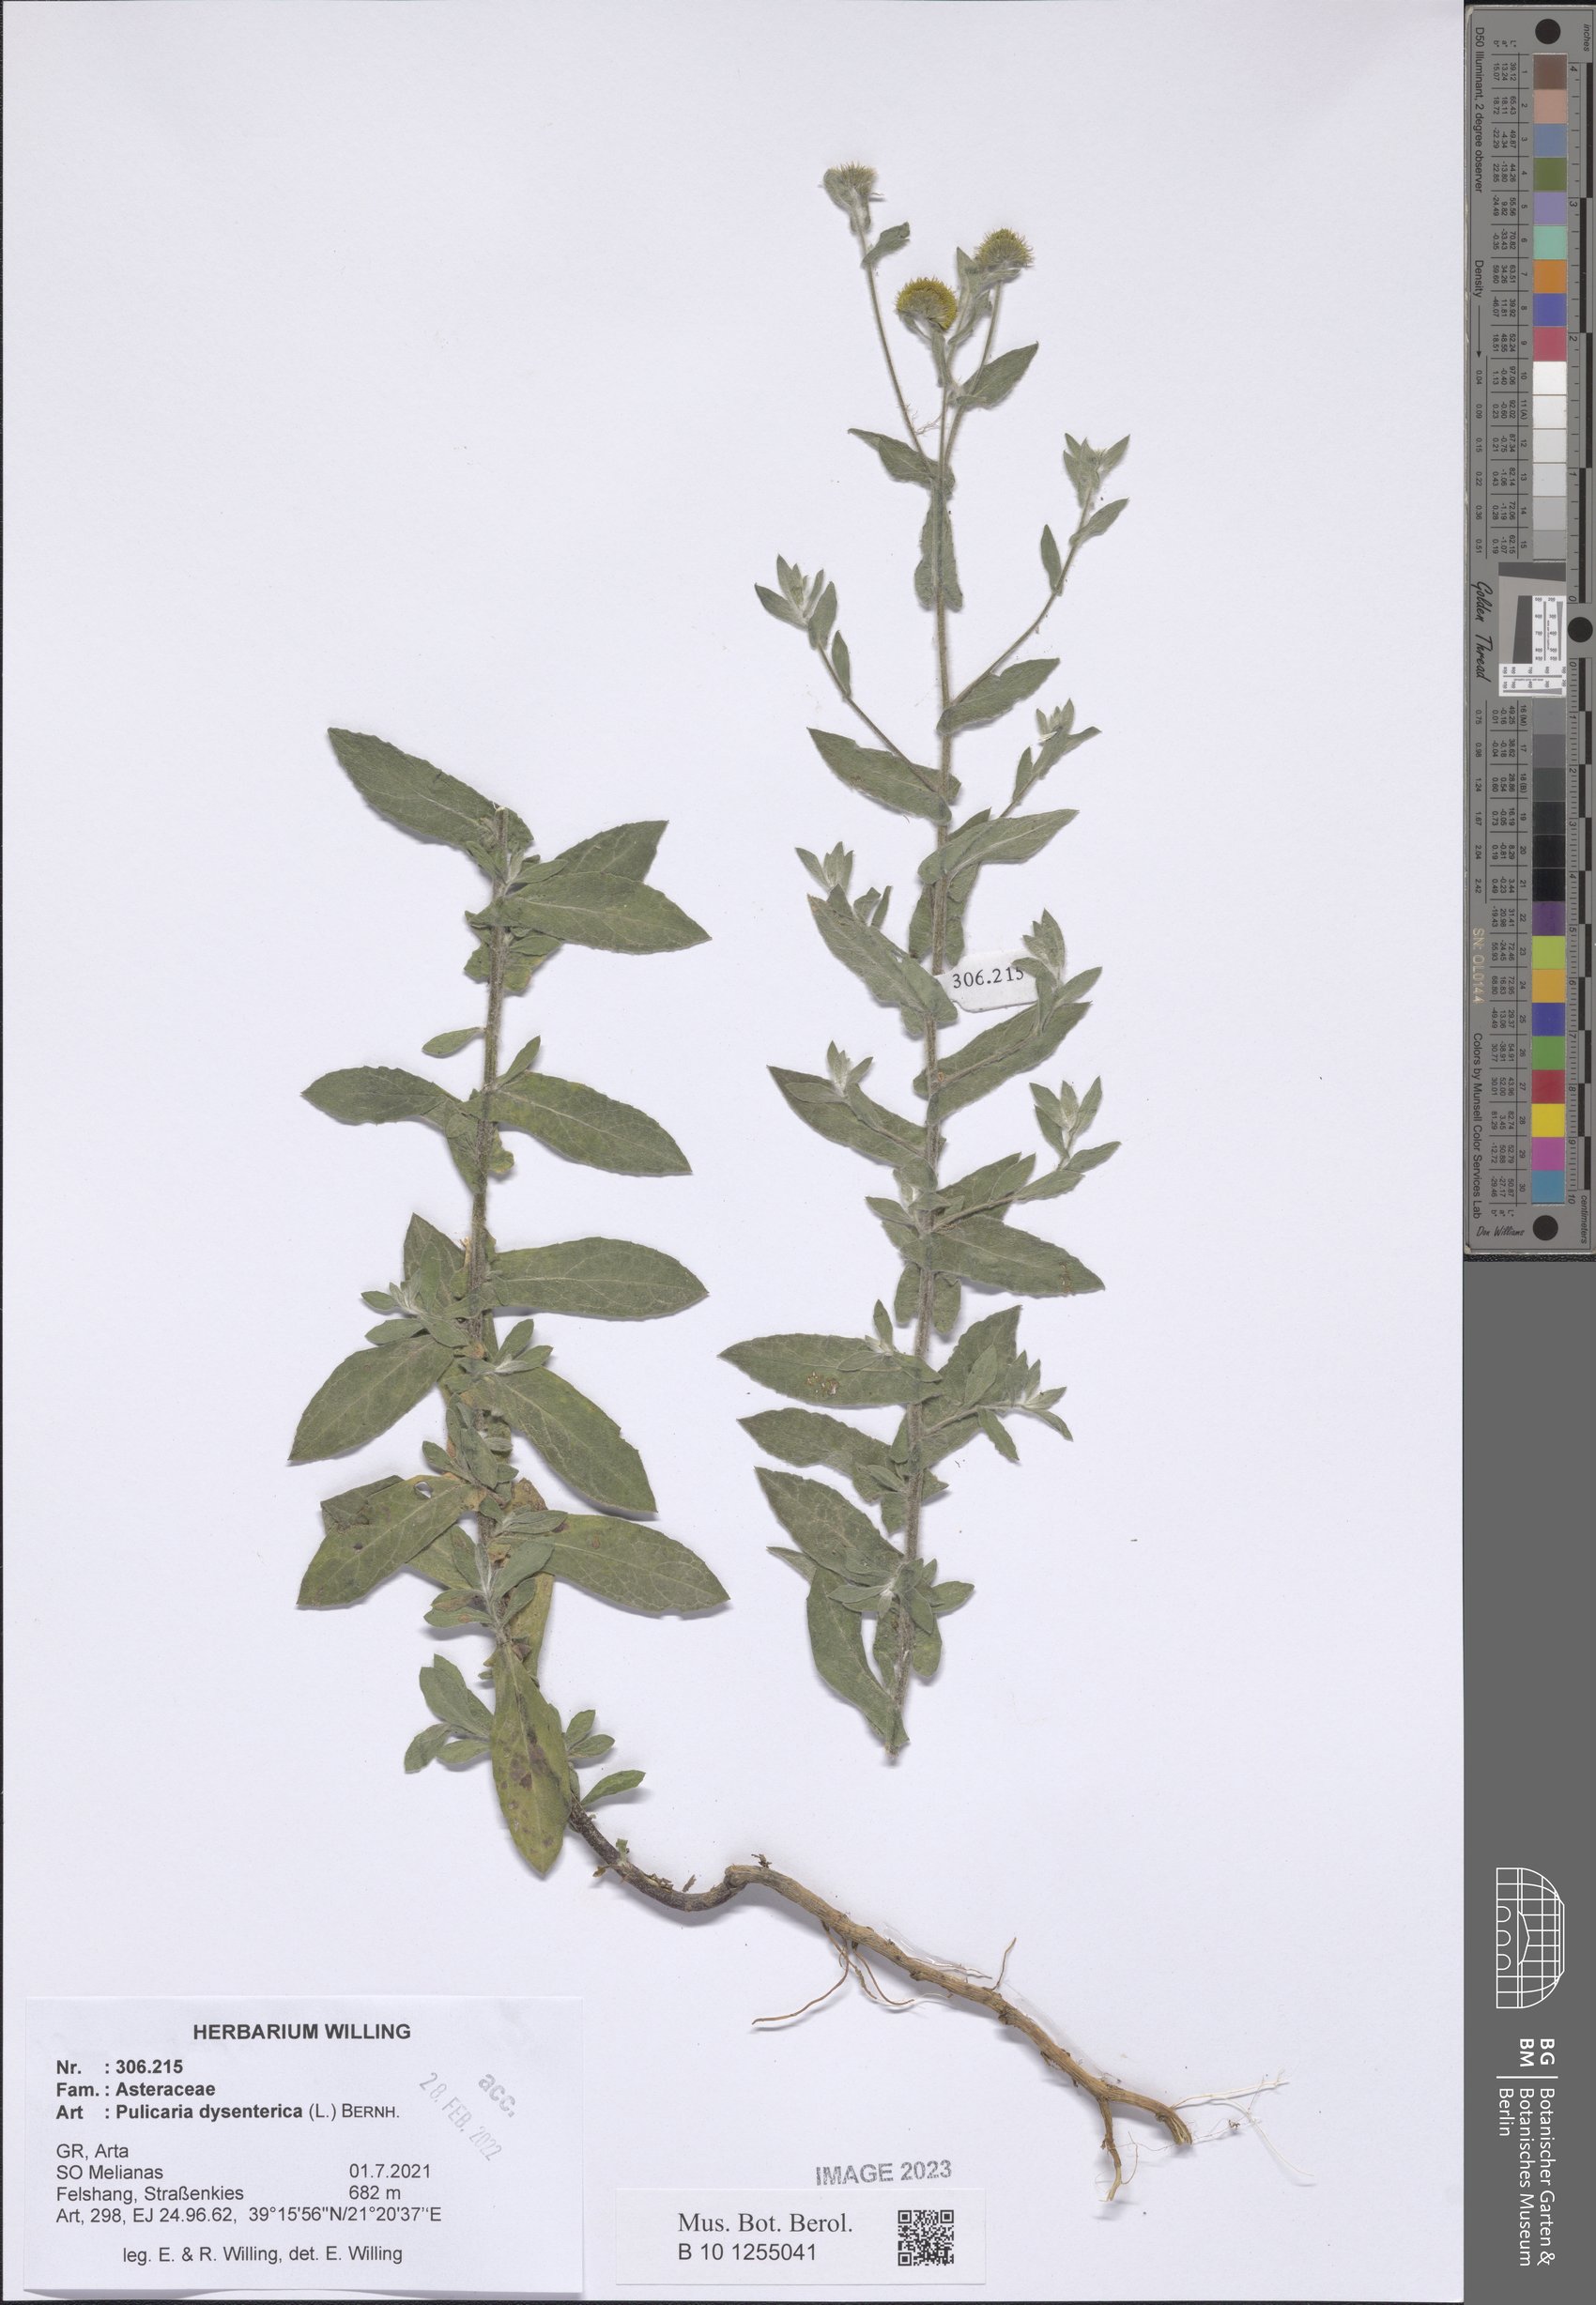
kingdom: Plantae
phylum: Tracheophyta
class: Magnoliopsida
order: Asterales
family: Asteraceae
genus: Pulicaria
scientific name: Pulicaria dysenterica
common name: Common fleabane
